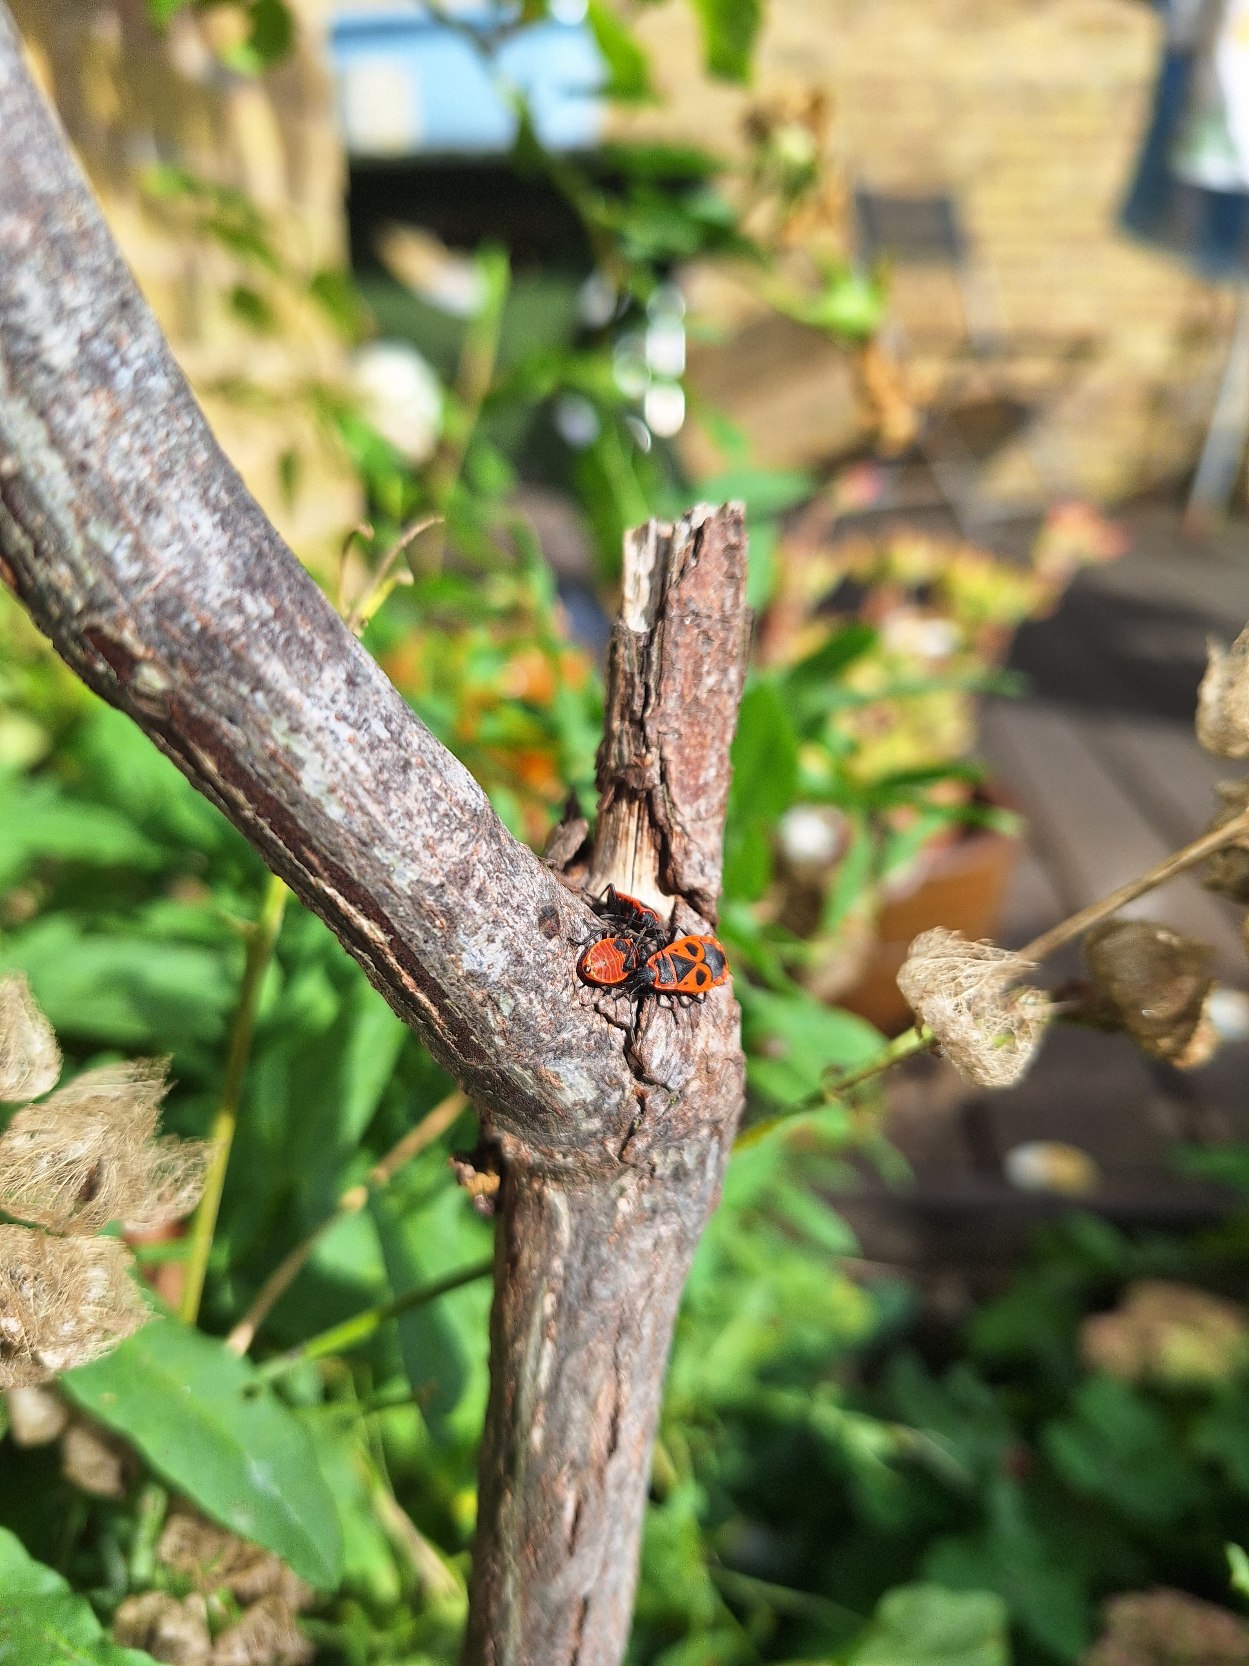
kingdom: Animalia
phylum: Arthropoda
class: Insecta
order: Hemiptera
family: Pyrrhocoridae
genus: Pyrrhocoris
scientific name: Pyrrhocoris apterus
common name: Ildtæge
